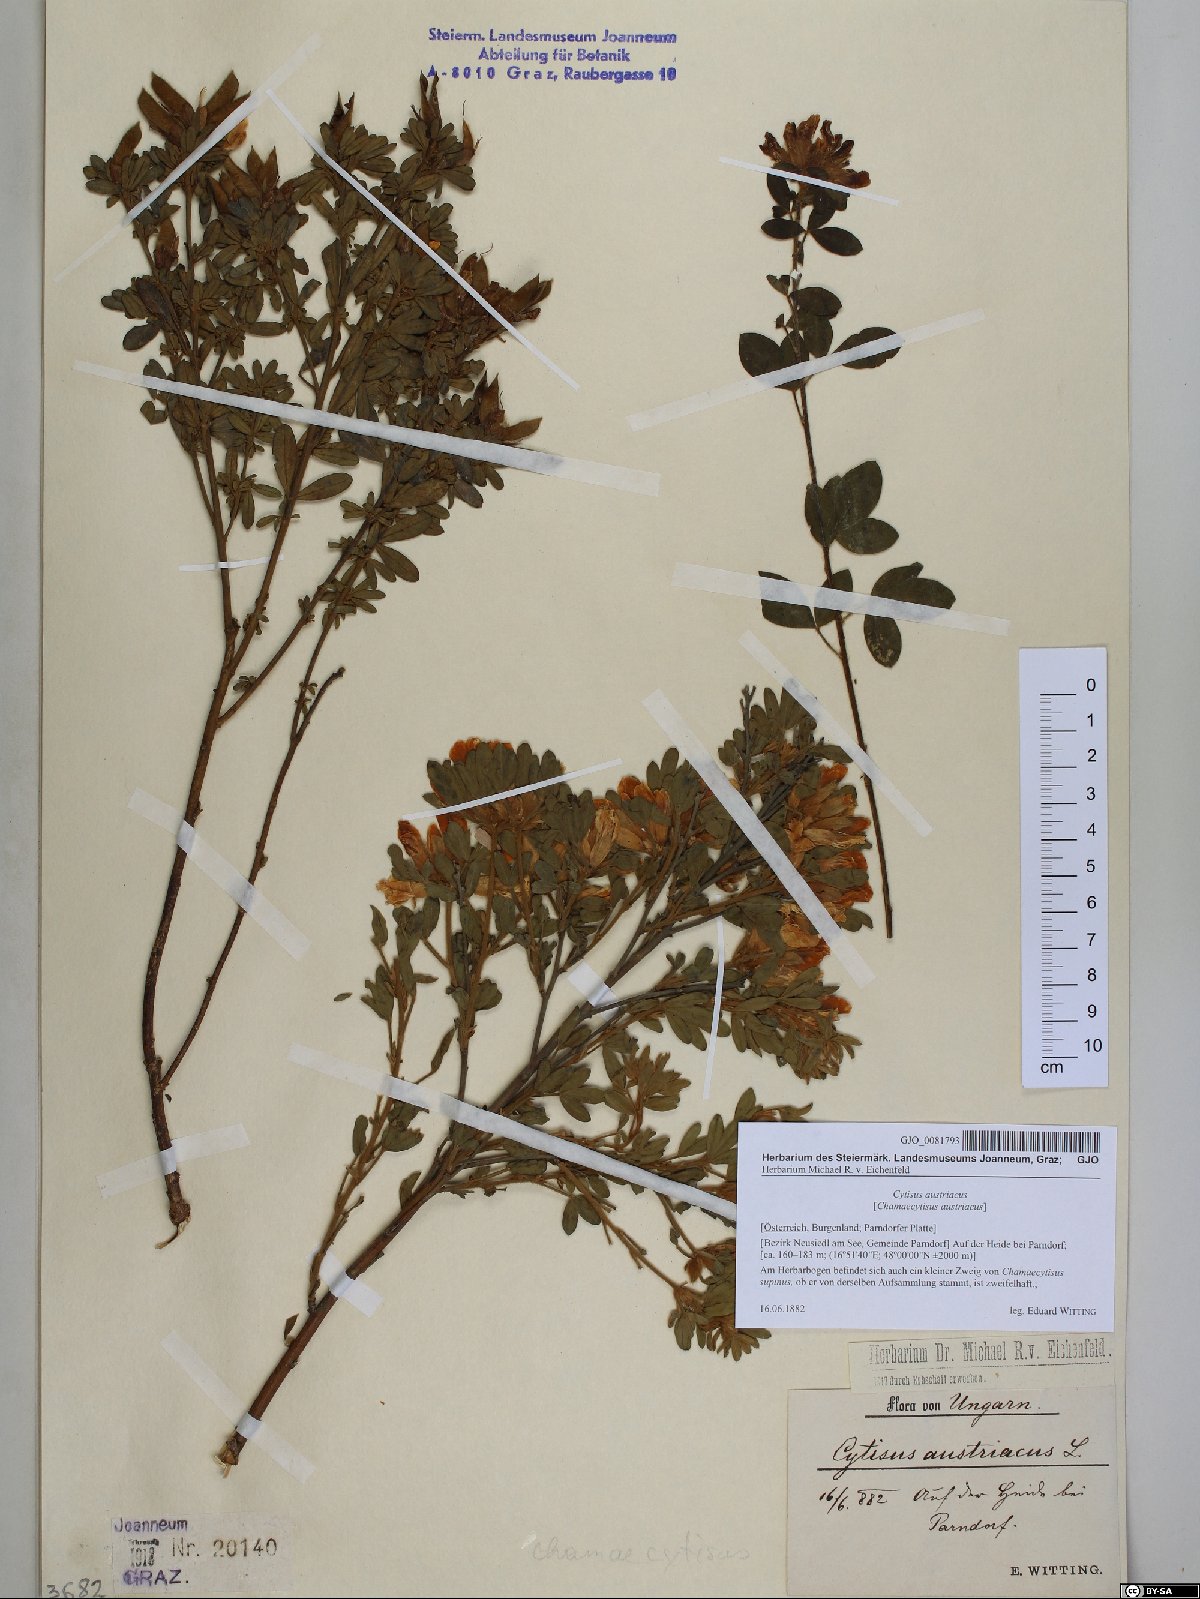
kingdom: Plantae
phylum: Tracheophyta
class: Magnoliopsida
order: Fabales
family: Fabaceae
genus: Chamaecytisus
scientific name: Chamaecytisus austriacus
